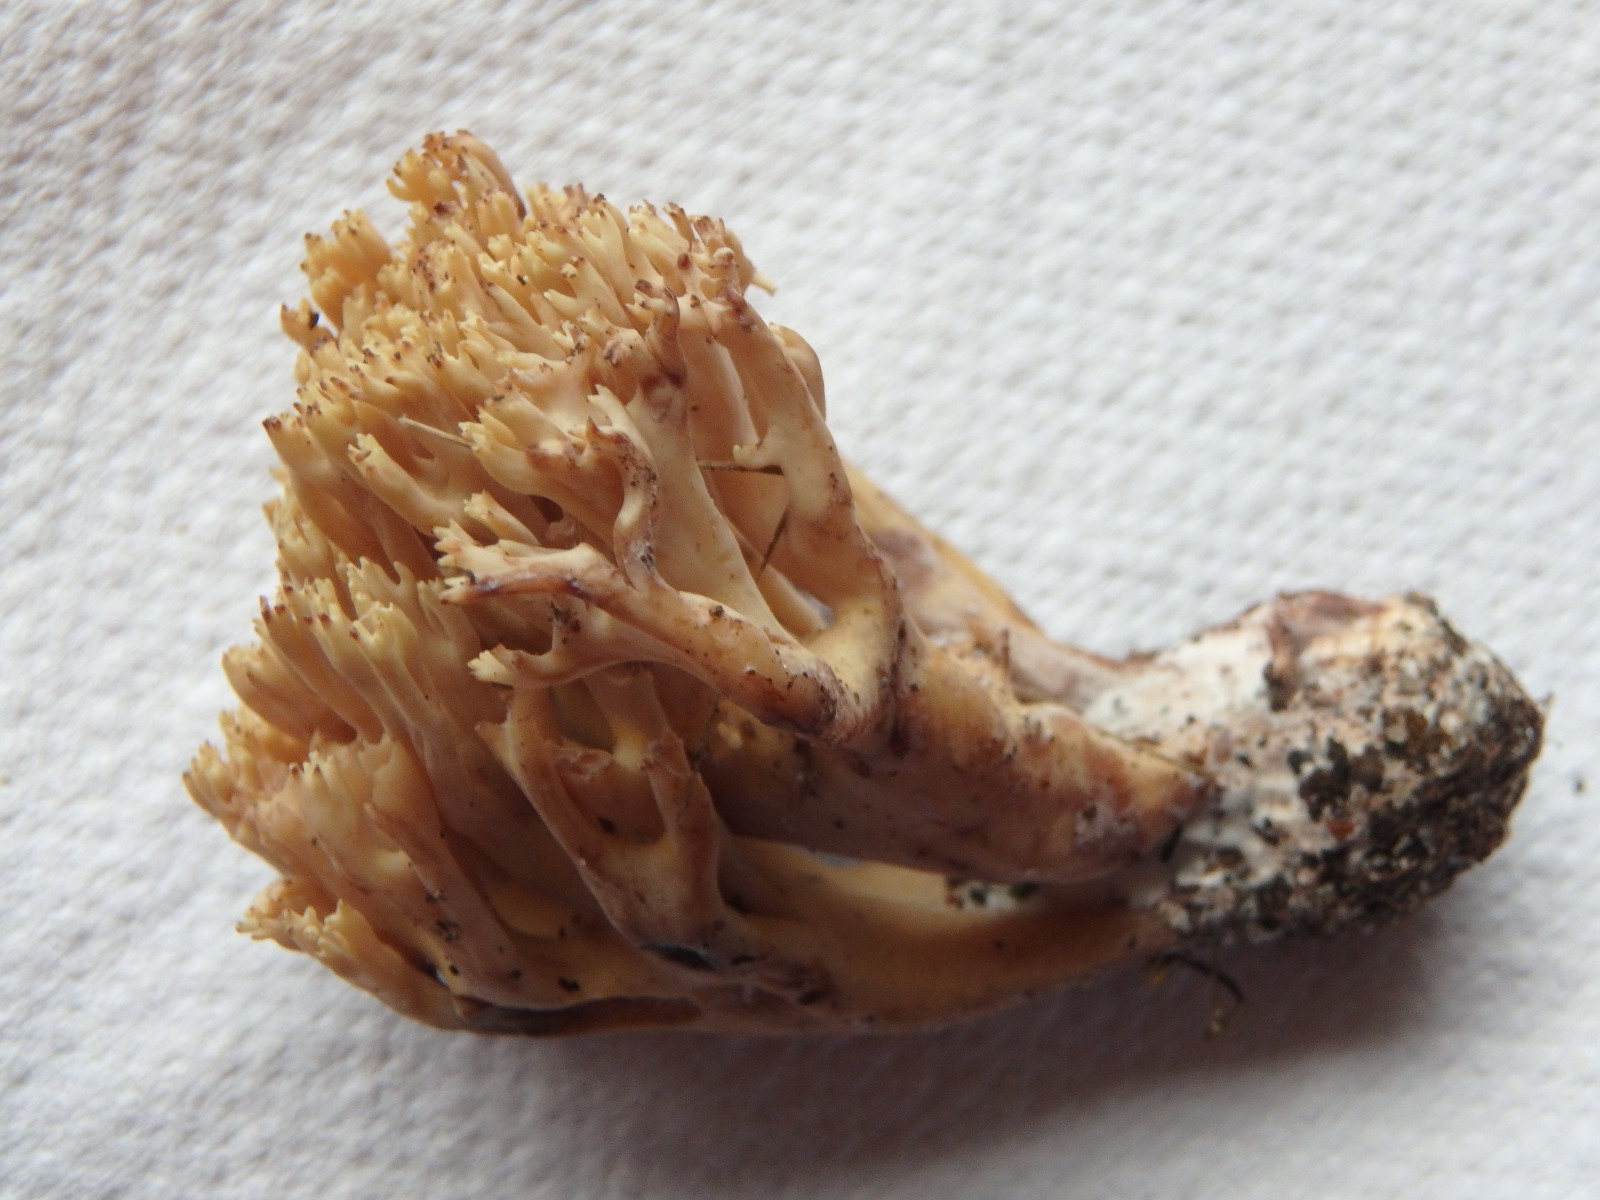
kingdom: Fungi
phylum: Basidiomycota
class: Agaricomycetes
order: Gomphales
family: Gomphaceae
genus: Ramaria
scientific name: Ramaria botrytis
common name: drue-koralsvamp
